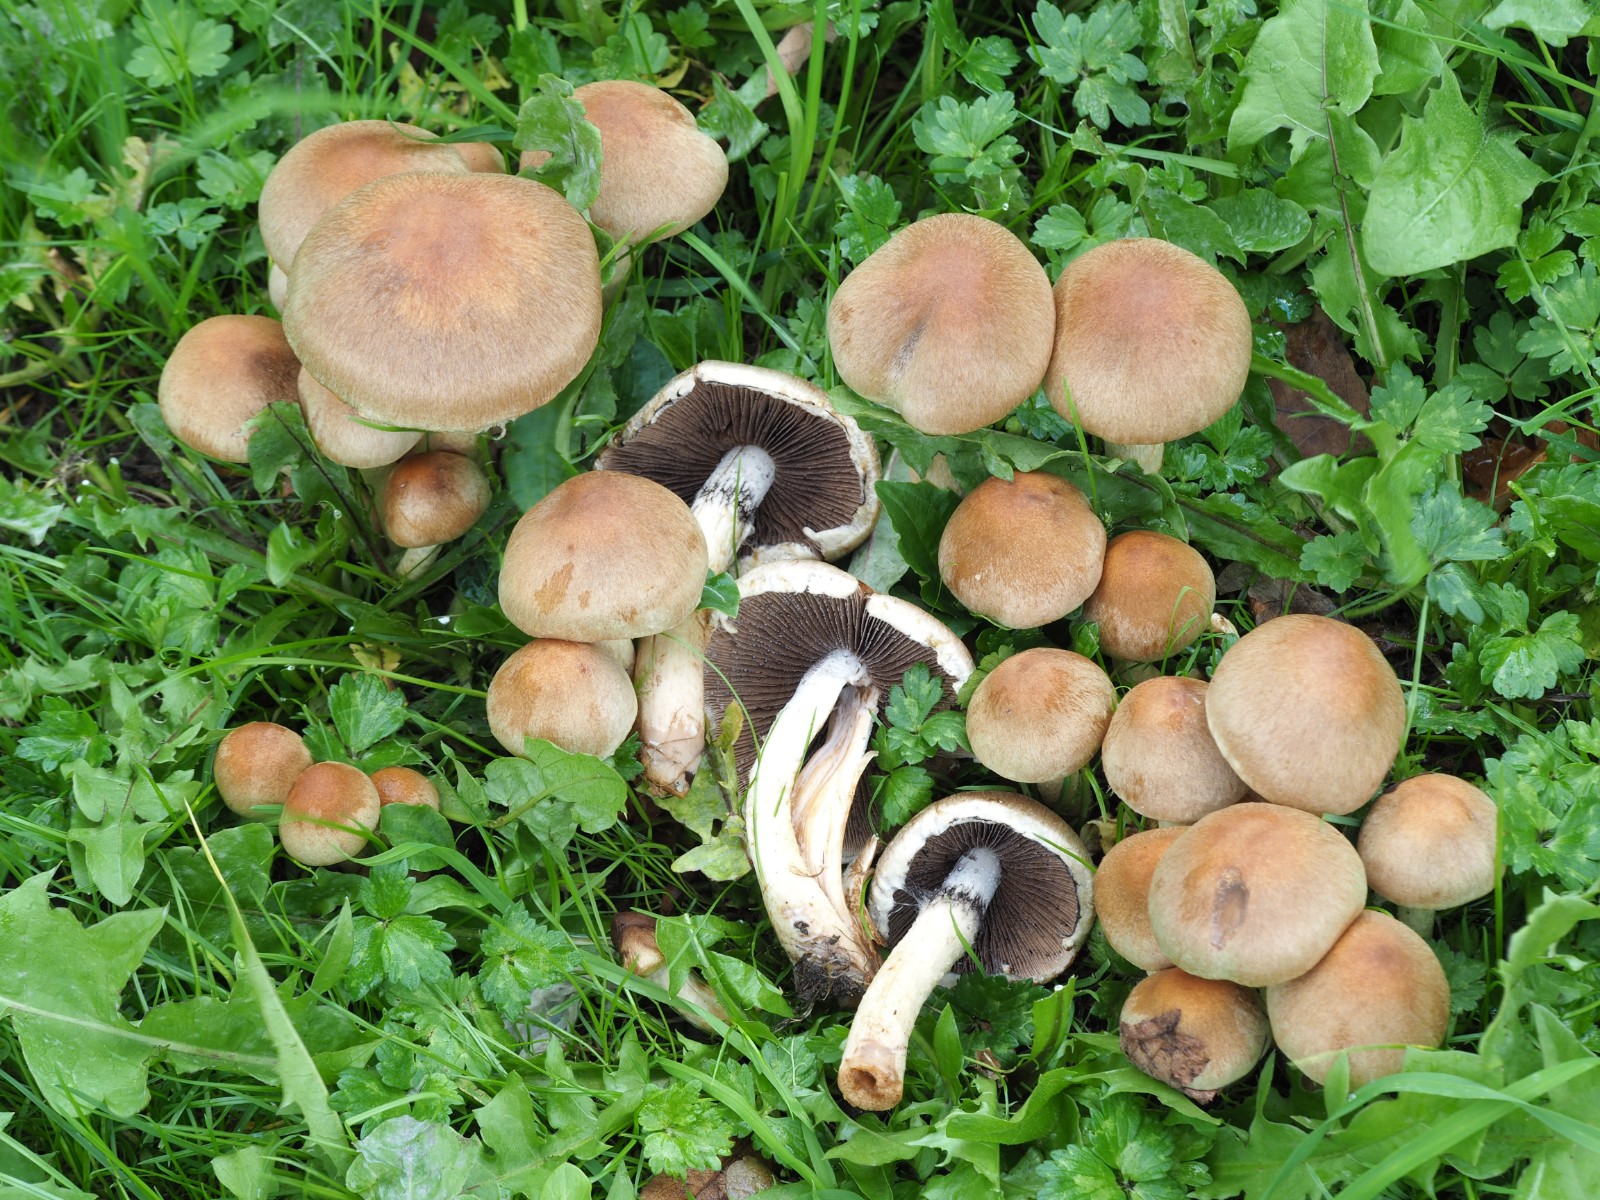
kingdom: Fungi
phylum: Basidiomycota
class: Agaricomycetes
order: Agaricales
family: Psathyrellaceae
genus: Lacrymaria
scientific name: Lacrymaria lacrymabunda
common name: grædende mørkhat
